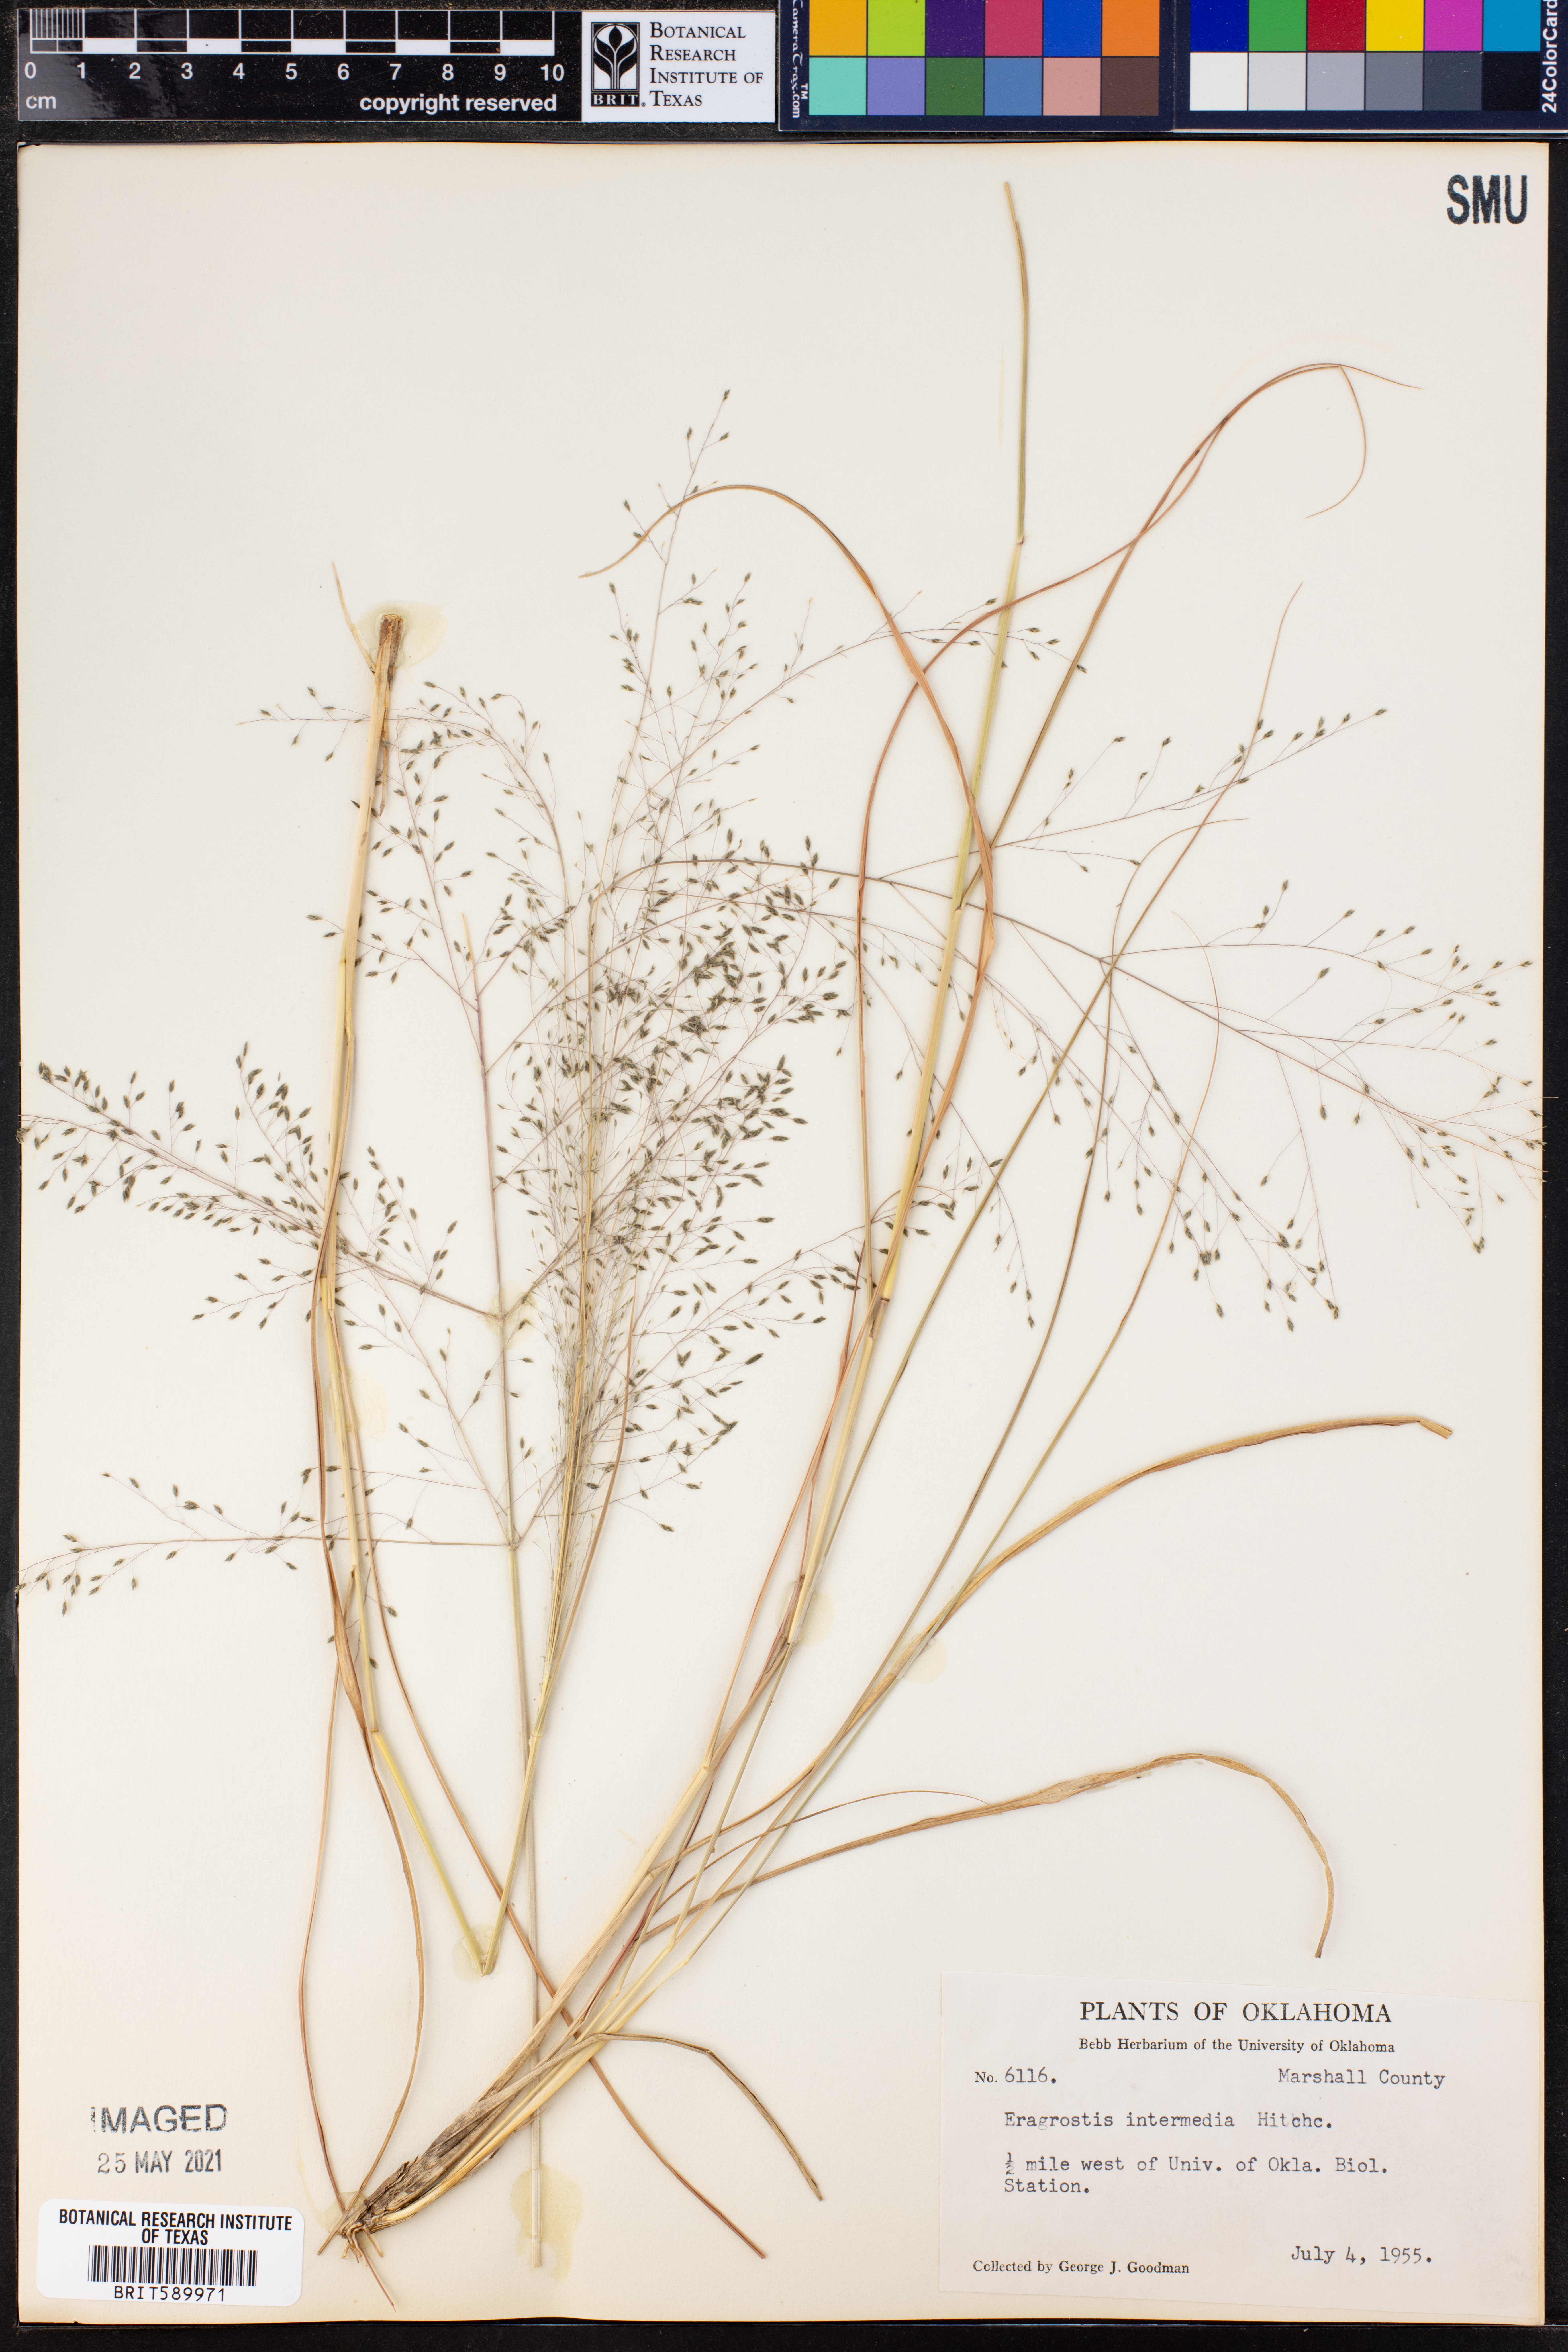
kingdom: Plantae
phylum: Tracheophyta
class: Liliopsida
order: Poales
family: Poaceae
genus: Eragrostis
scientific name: Eragrostis intermedia
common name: Plains love grass
